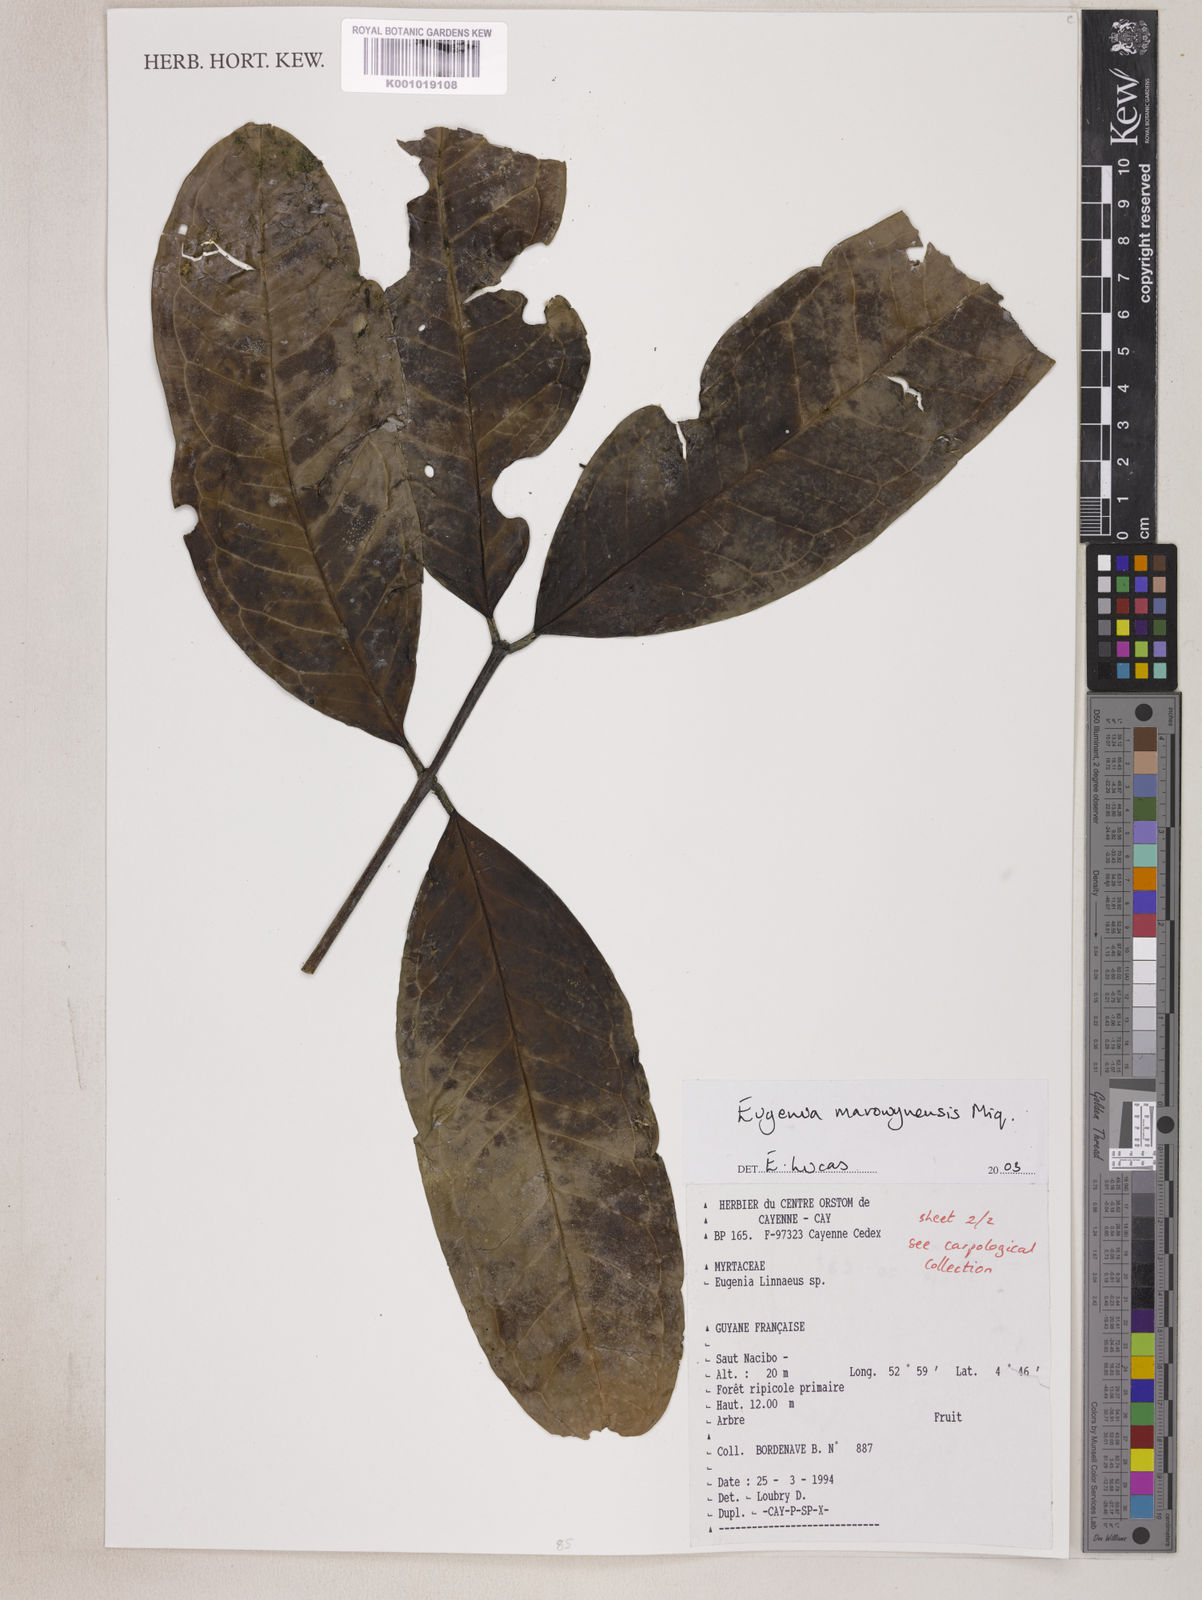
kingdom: Plantae
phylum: Tracheophyta
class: Magnoliopsida
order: Myrtales
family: Myrtaceae
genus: Eugenia
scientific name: Eugenia marowynensis
